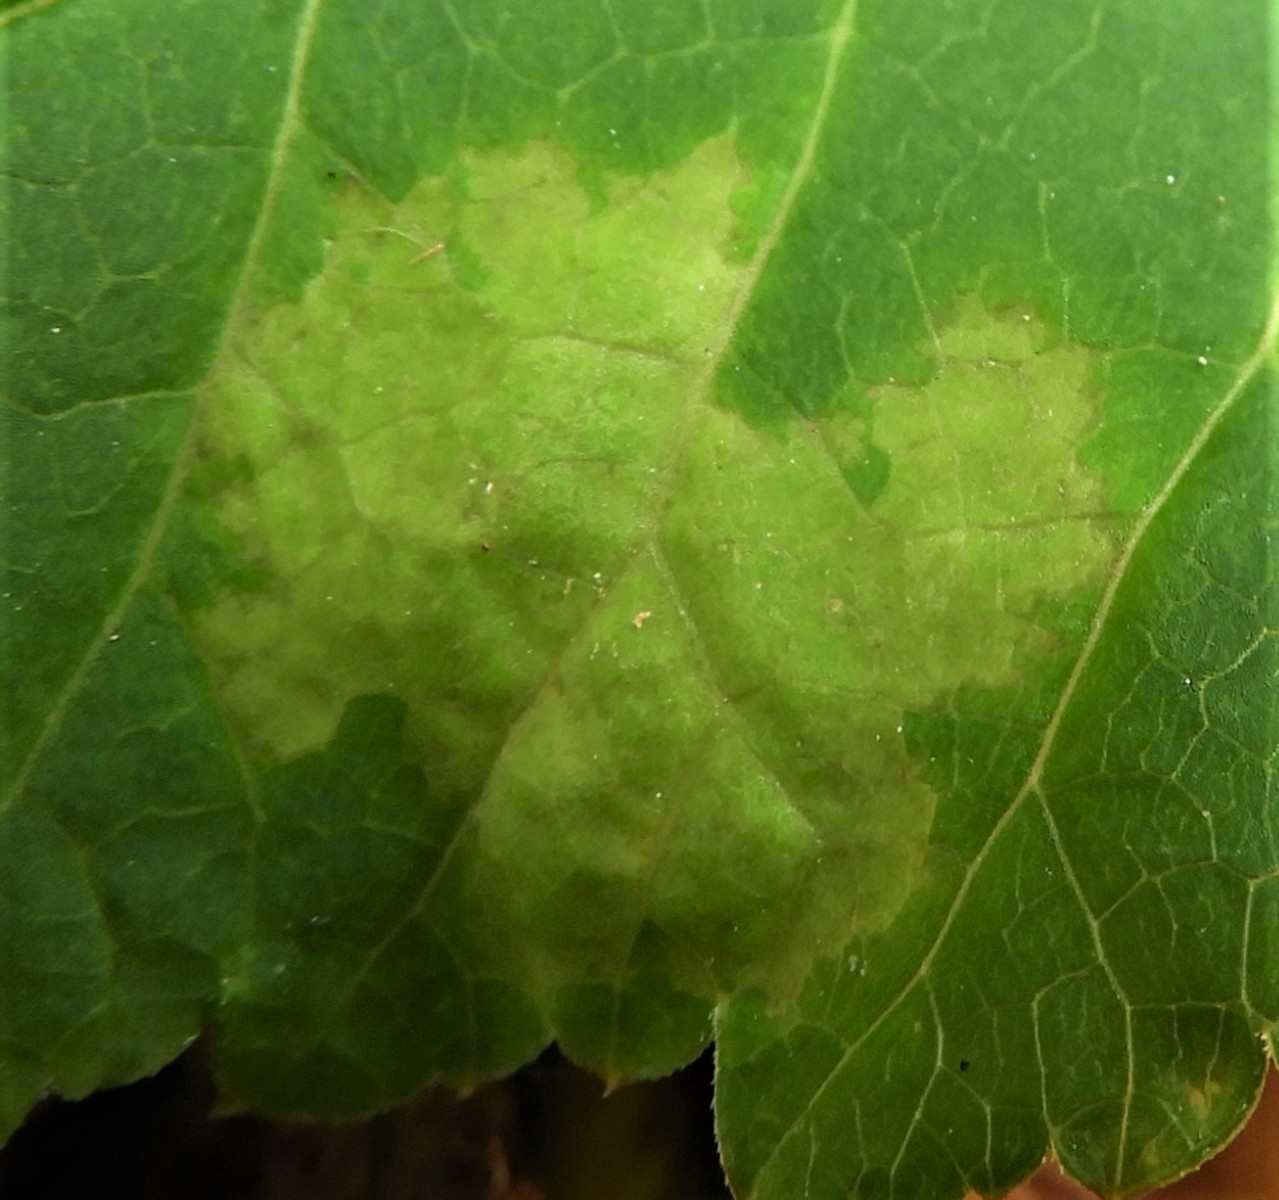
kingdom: Chromista
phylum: Oomycota
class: Peronosporea
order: Peronosporales
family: Peronosporaceae
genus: Peronospora
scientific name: Peronospora crustosa
